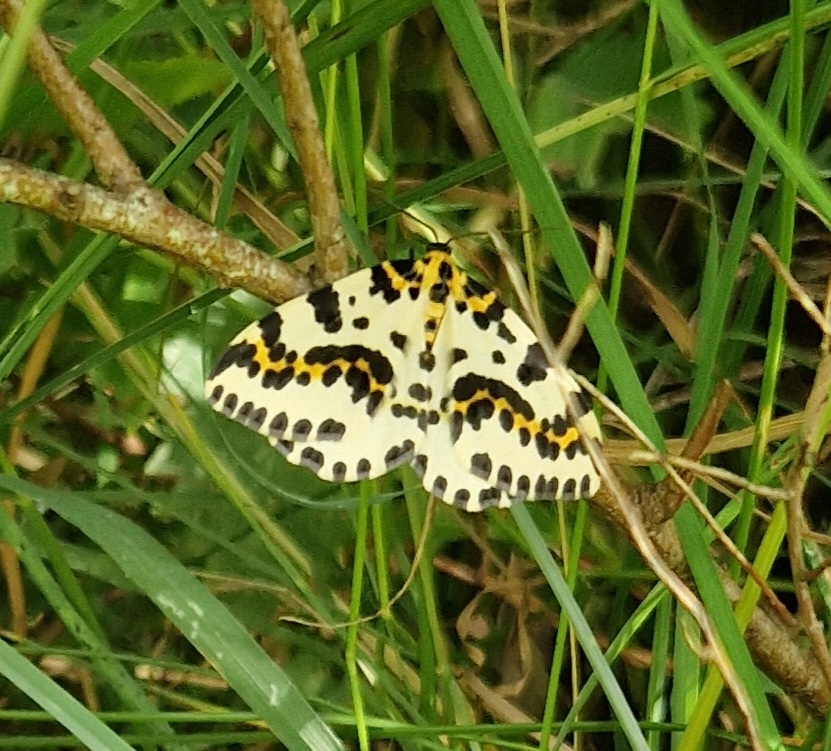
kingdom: Animalia
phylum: Arthropoda
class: Insecta
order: Lepidoptera
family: Geometridae
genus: Abraxas
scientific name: Abraxas grossulariata
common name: Harlekin
